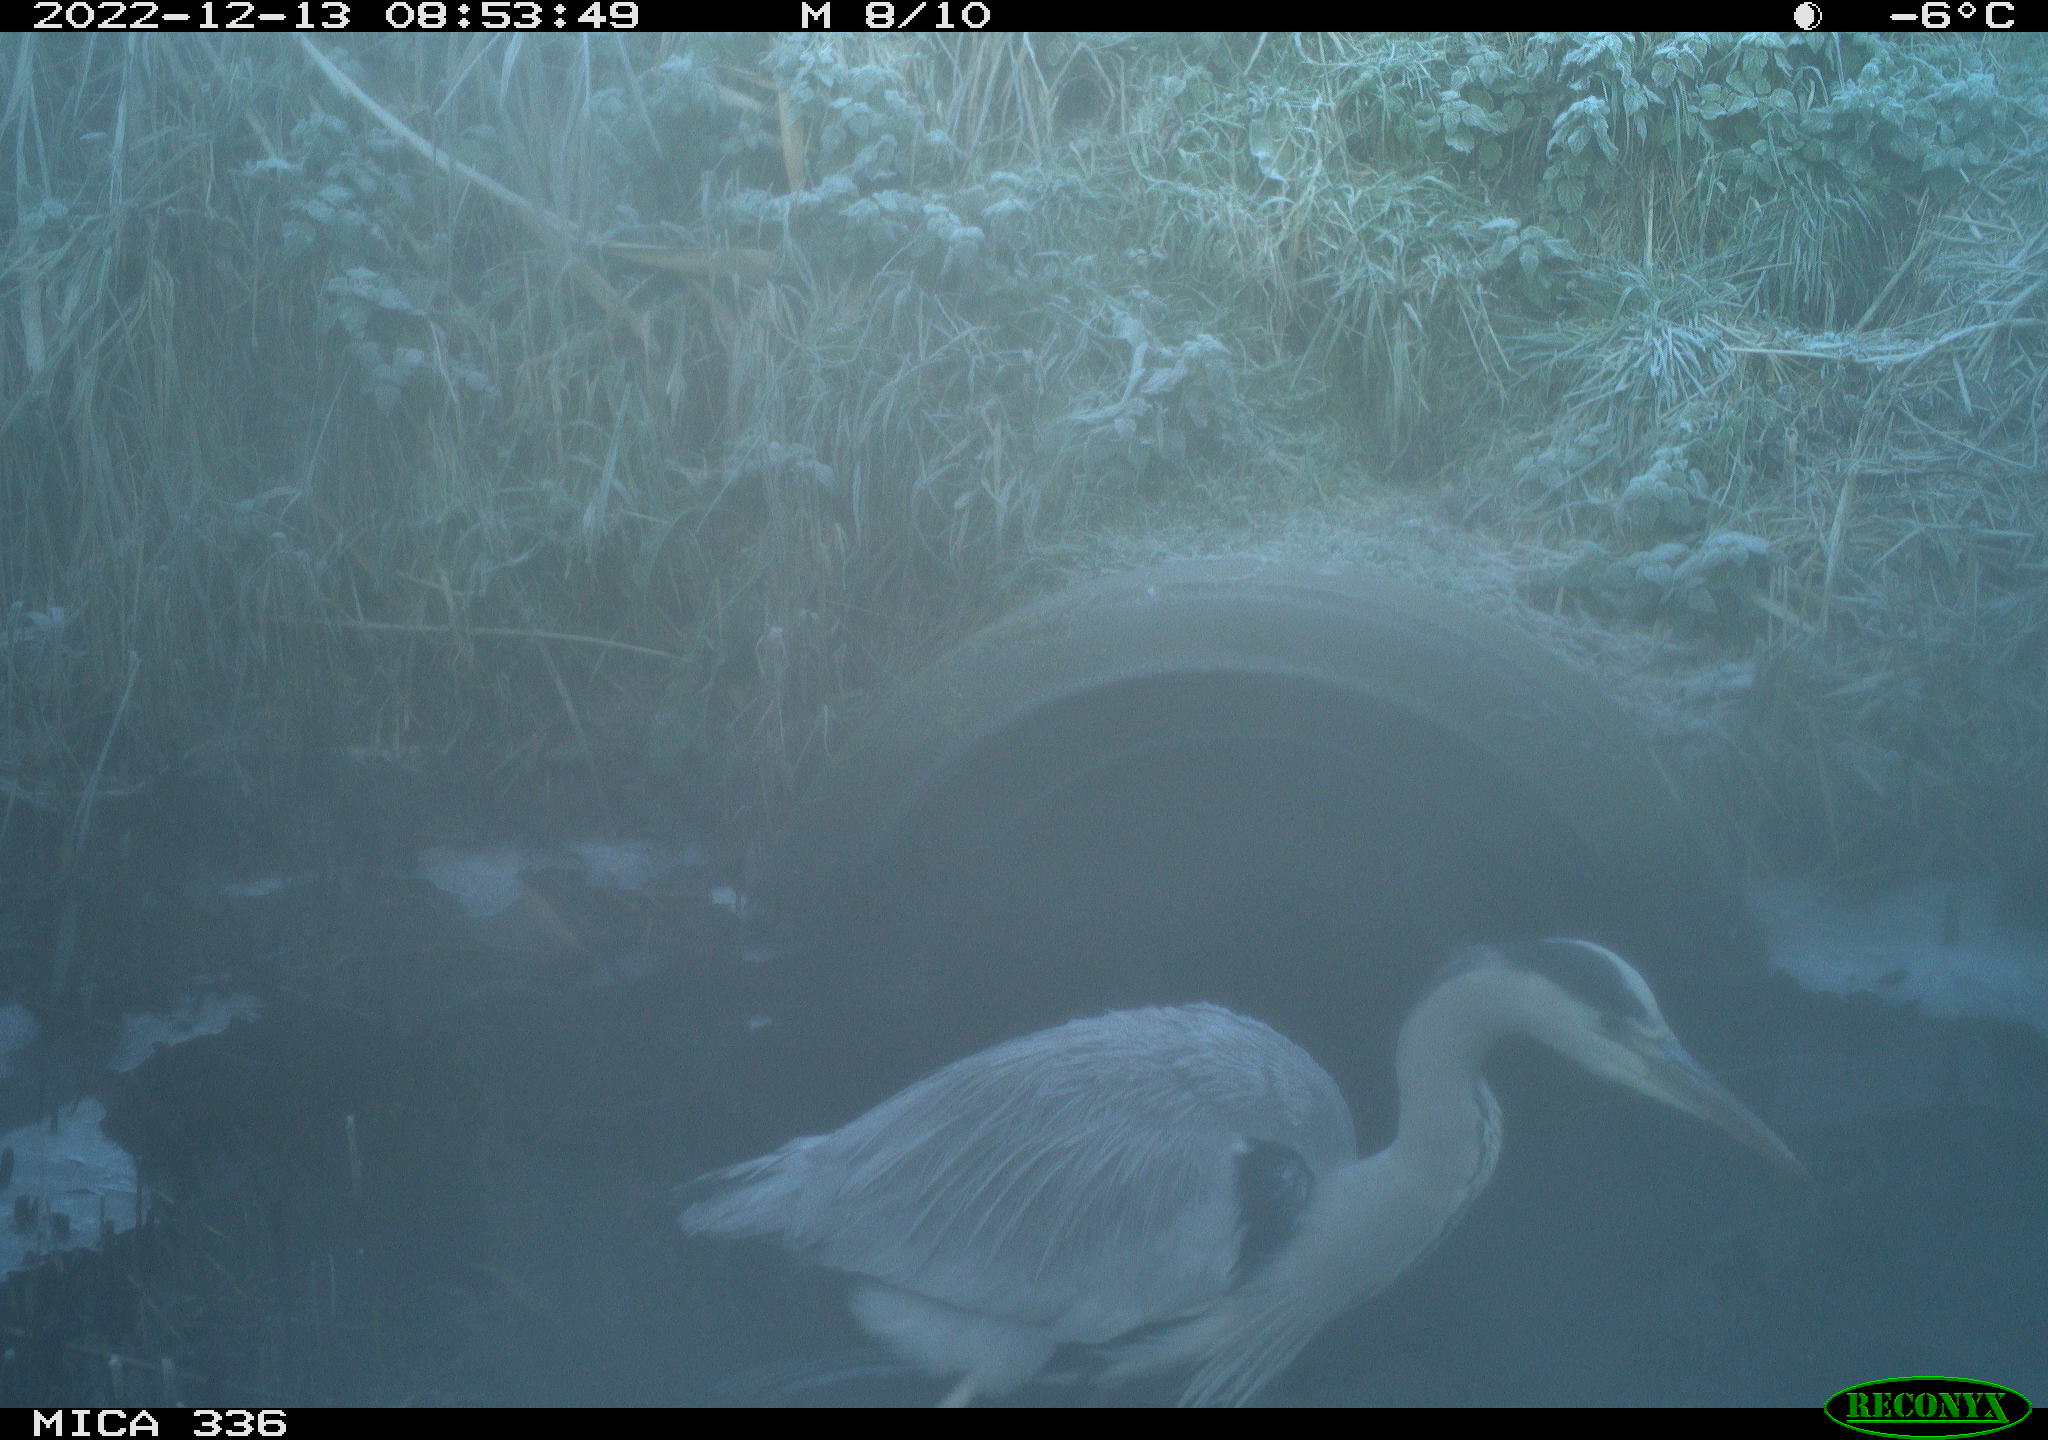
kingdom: Animalia
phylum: Chordata
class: Aves
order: Pelecaniformes
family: Ardeidae
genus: Ardea
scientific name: Ardea cinerea
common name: Grey heron
